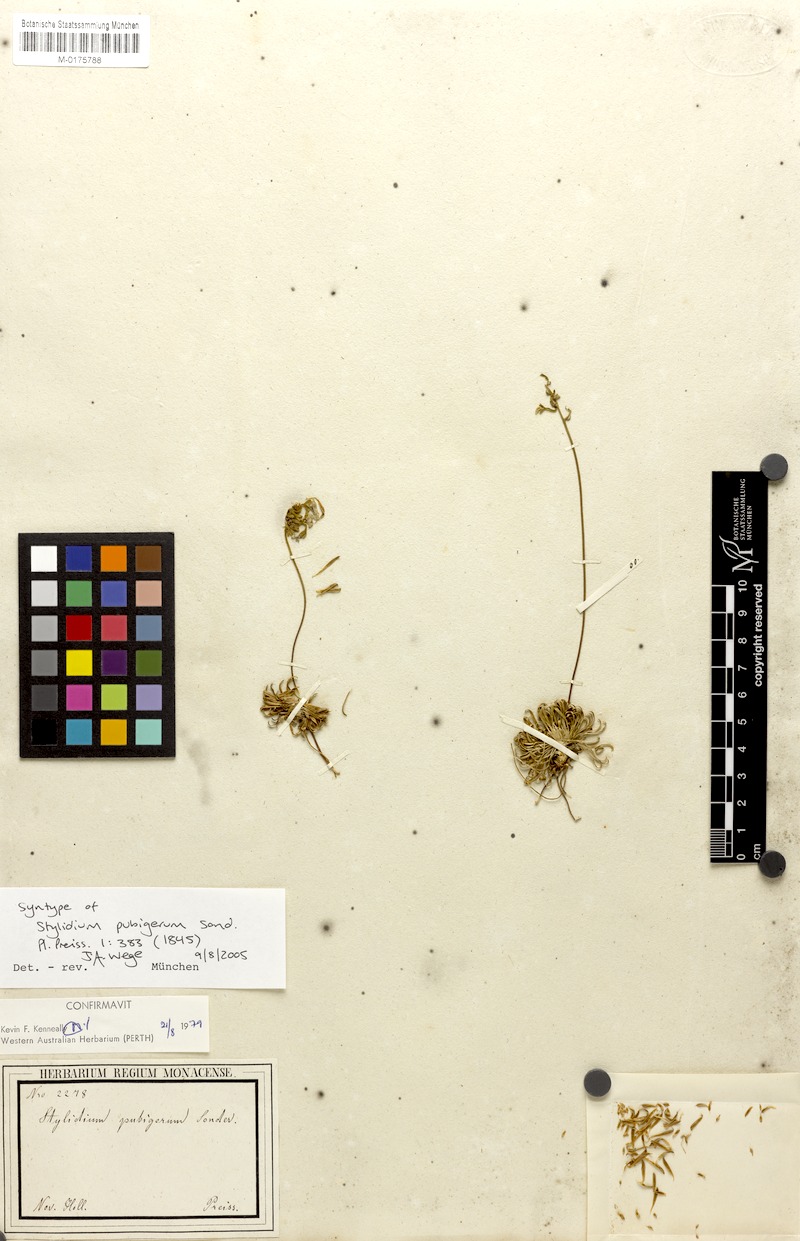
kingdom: Plantae
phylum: Tracheophyta
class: Magnoliopsida
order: Asterales
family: Stylidiaceae
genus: Stylidium
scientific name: Stylidium pubigerum
